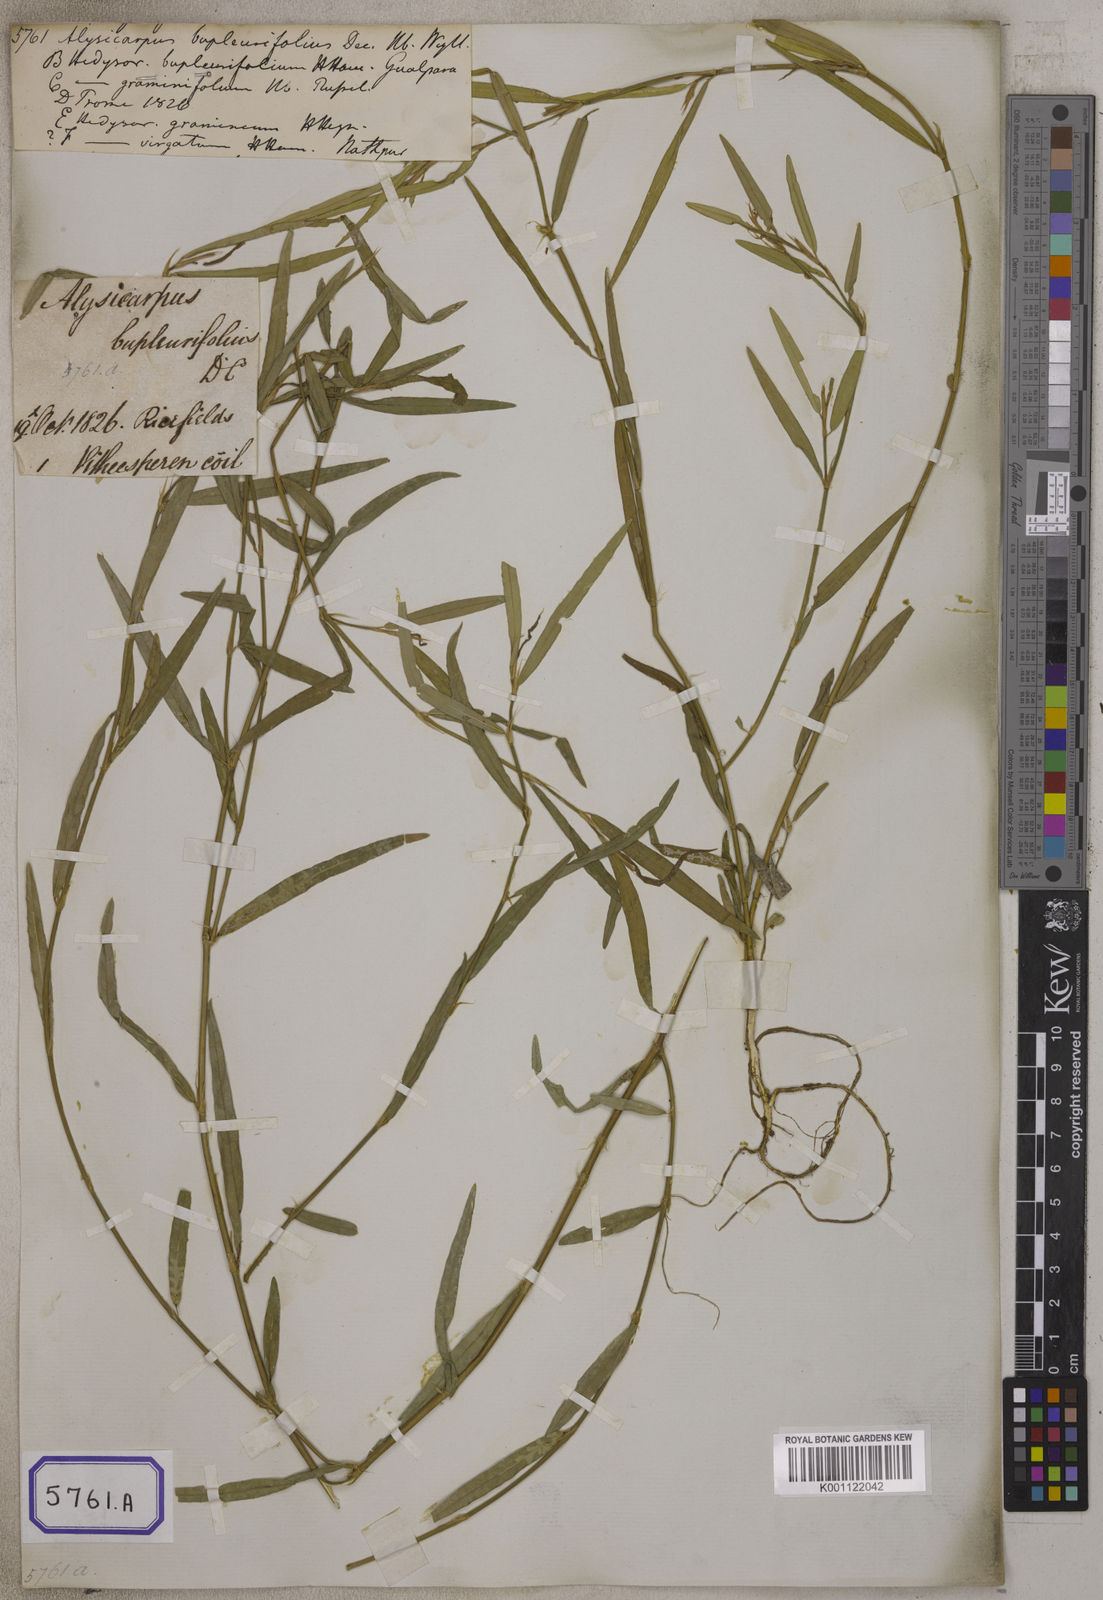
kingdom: Plantae
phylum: Tracheophyta
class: Magnoliopsida
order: Fabales
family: Fabaceae
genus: Alysicarpus
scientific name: Alysicarpus bupleurifolius
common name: Sweet alys
